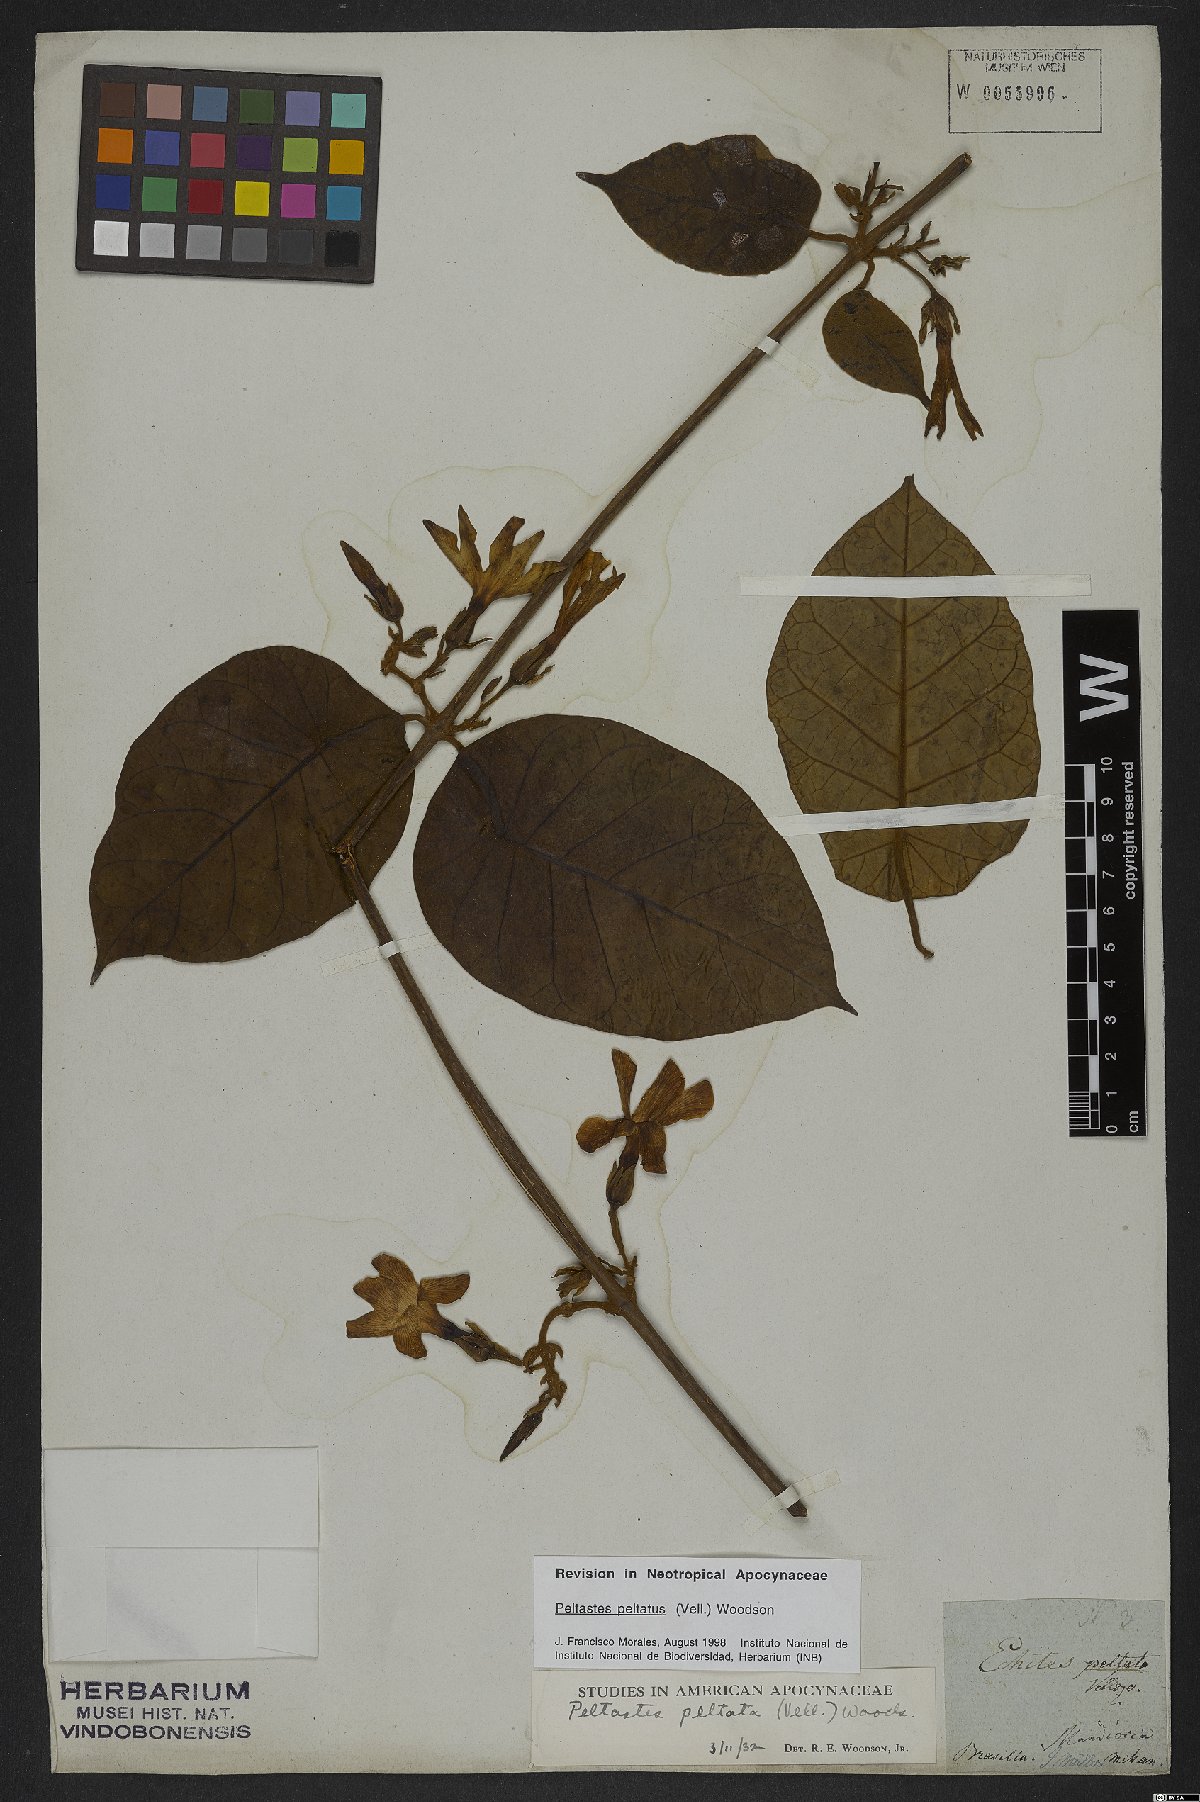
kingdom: Plantae
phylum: Tracheophyta
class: Magnoliopsida
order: Gentianales
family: Apocynaceae
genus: Macropharynx
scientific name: Macropharynx peltata
